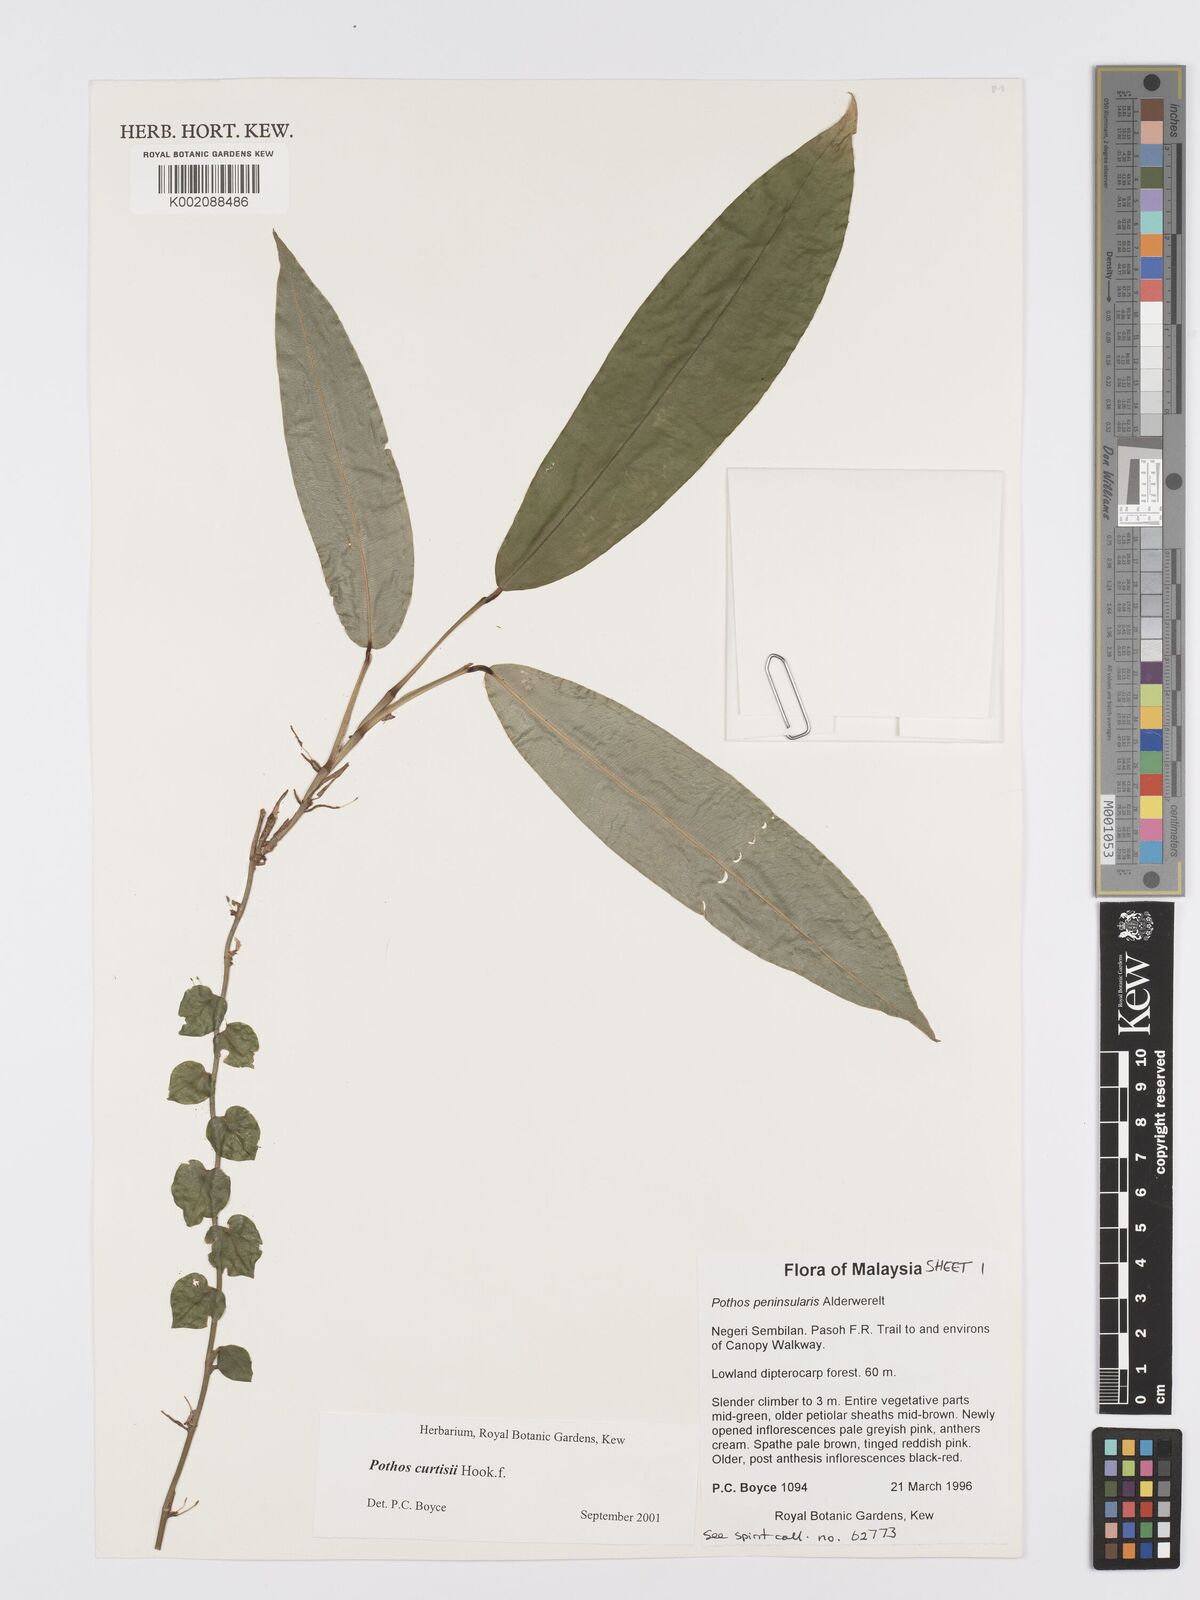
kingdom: Plantae
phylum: Tracheophyta
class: Liliopsida
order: Alismatales
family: Araceae
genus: Pothos
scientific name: Pothos curtisii
